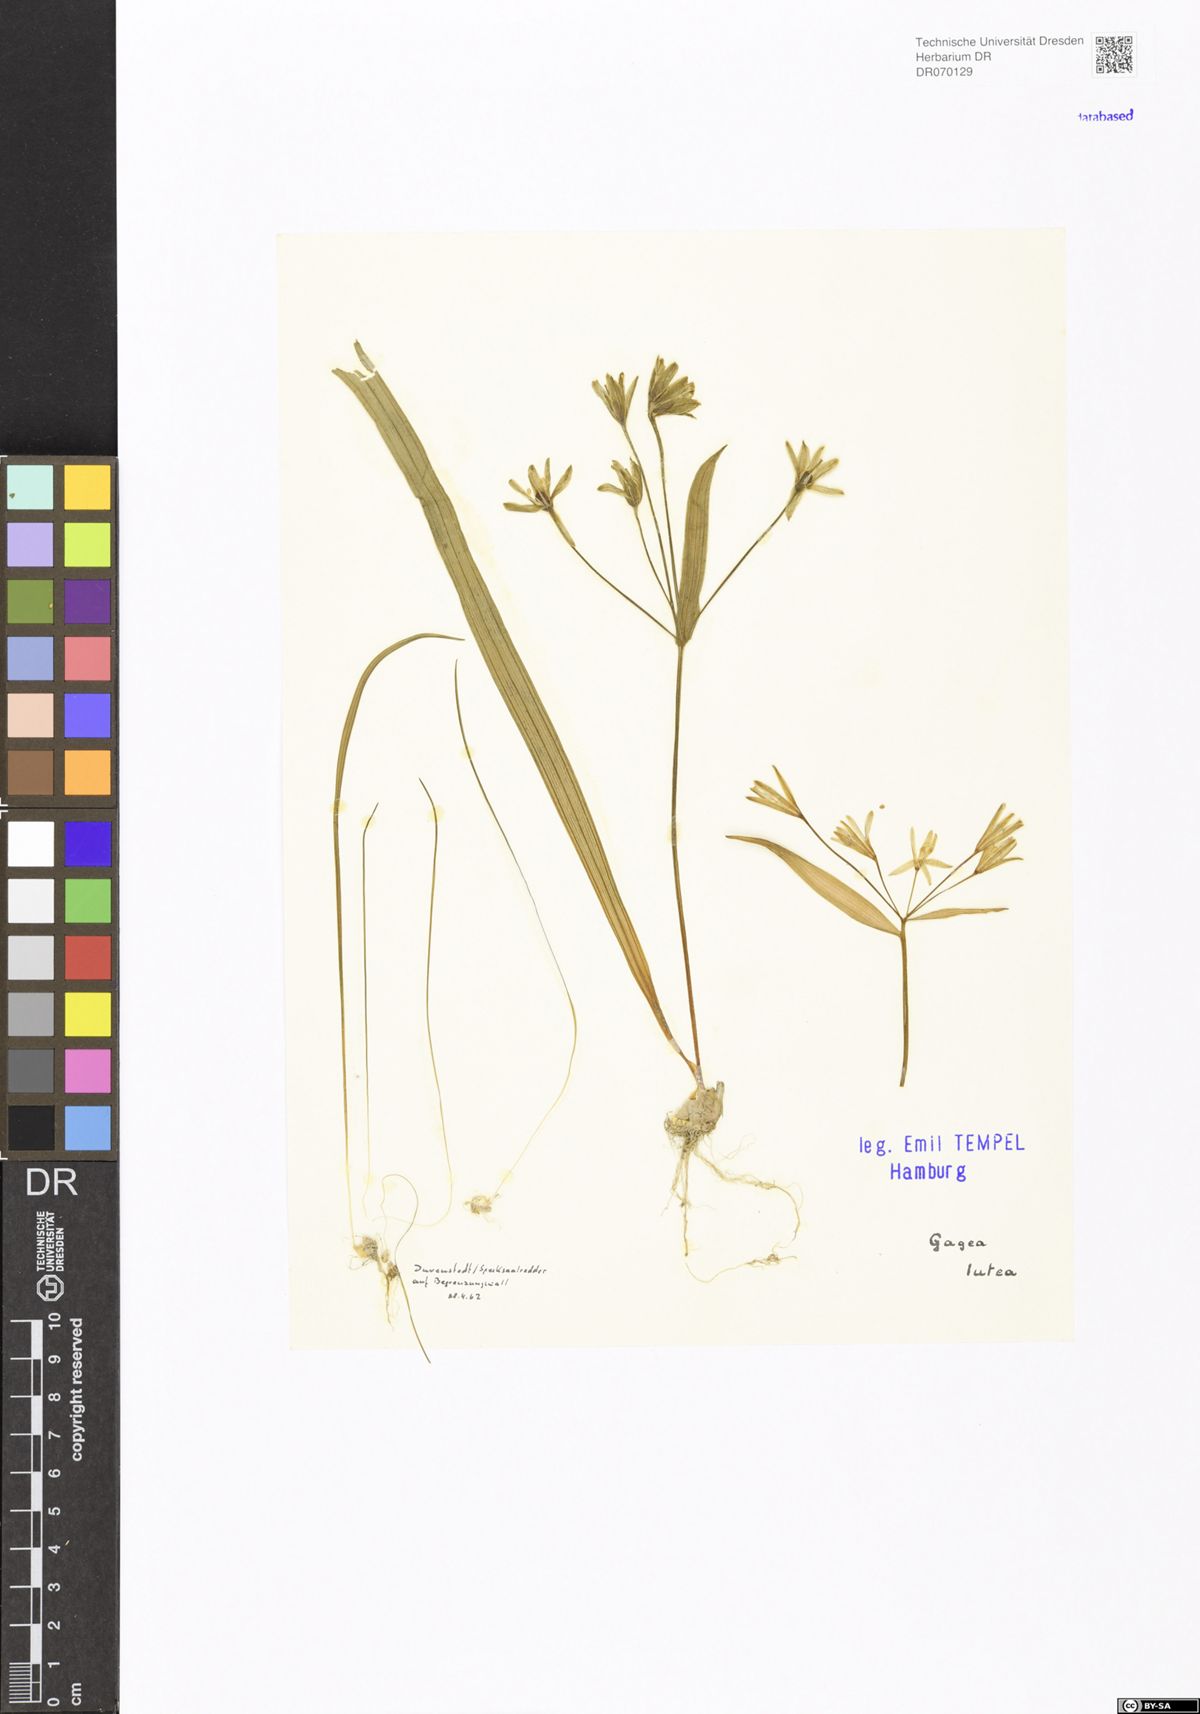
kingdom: Plantae
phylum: Tracheophyta
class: Liliopsida
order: Liliales
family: Liliaceae
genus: Gagea
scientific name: Gagea lutea
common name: Yellow star-of-bethlehem
